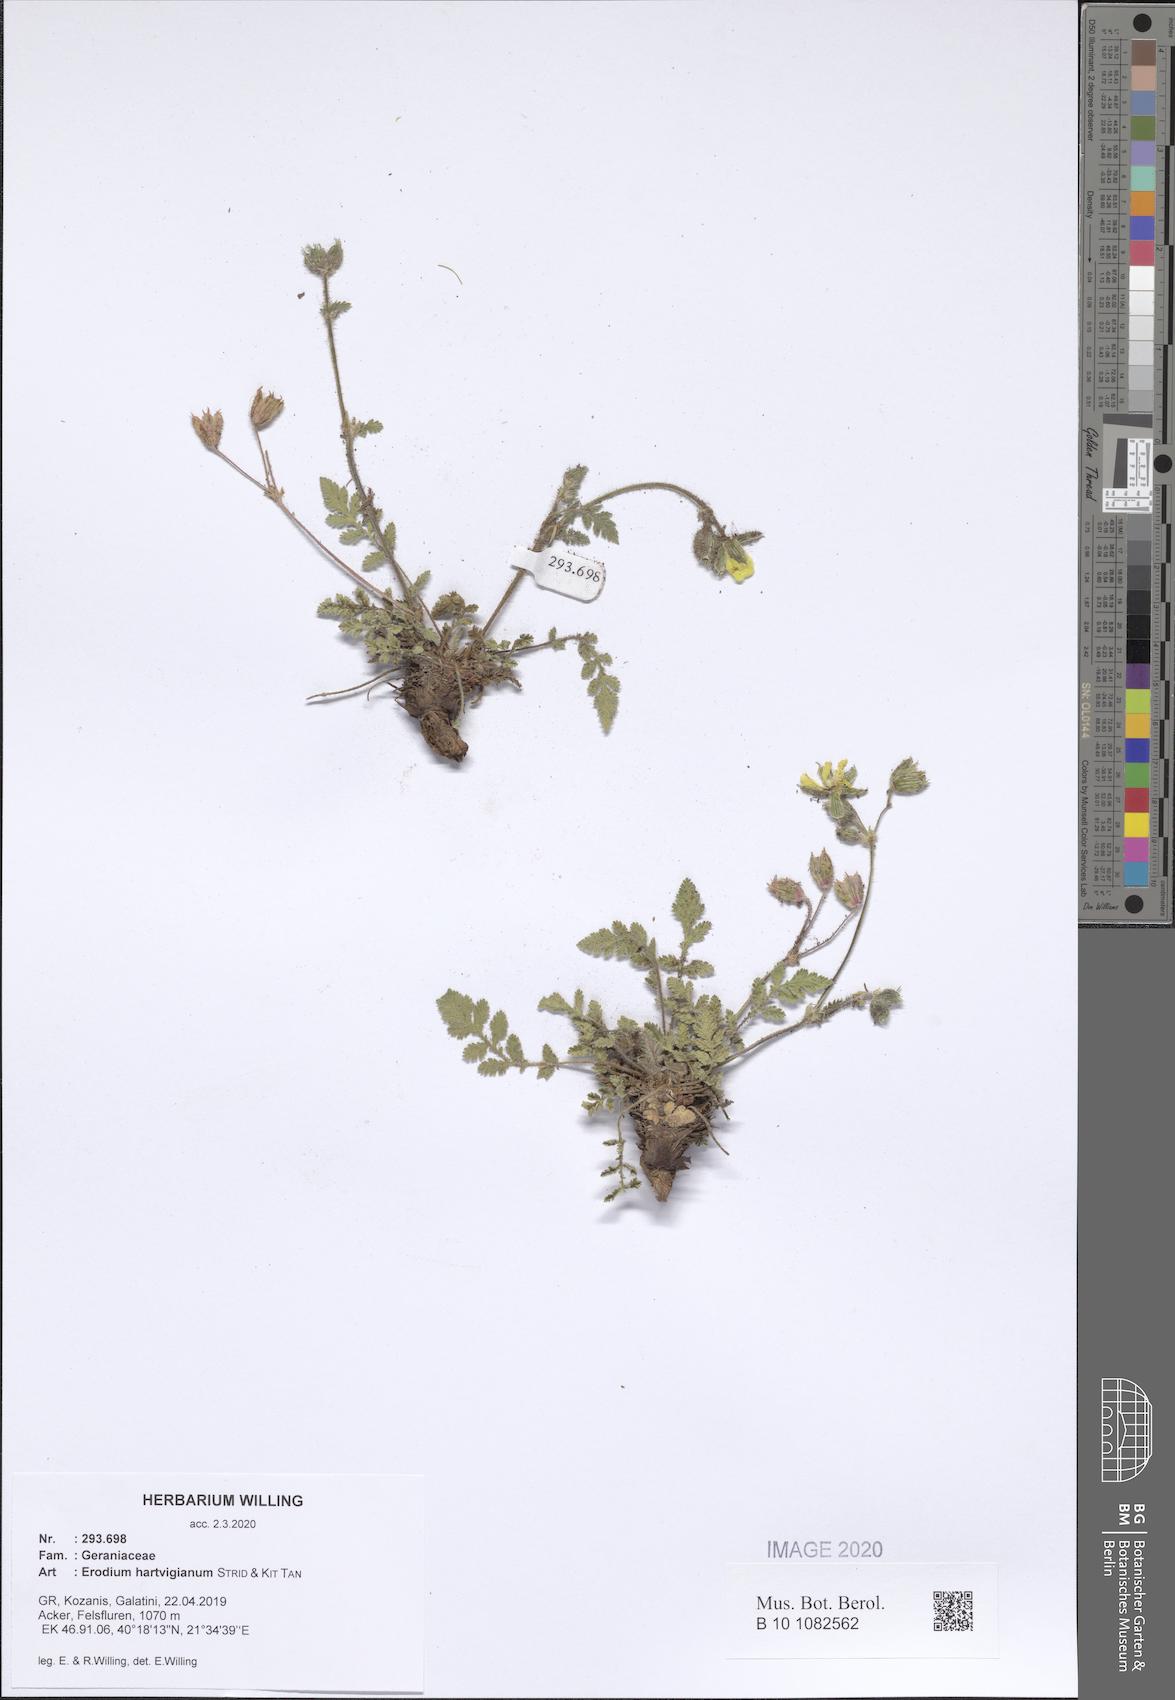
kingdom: Plantae
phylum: Tracheophyta
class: Magnoliopsida
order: Geraniales
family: Geraniaceae
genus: Erodium
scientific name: Erodium hartvigianum
